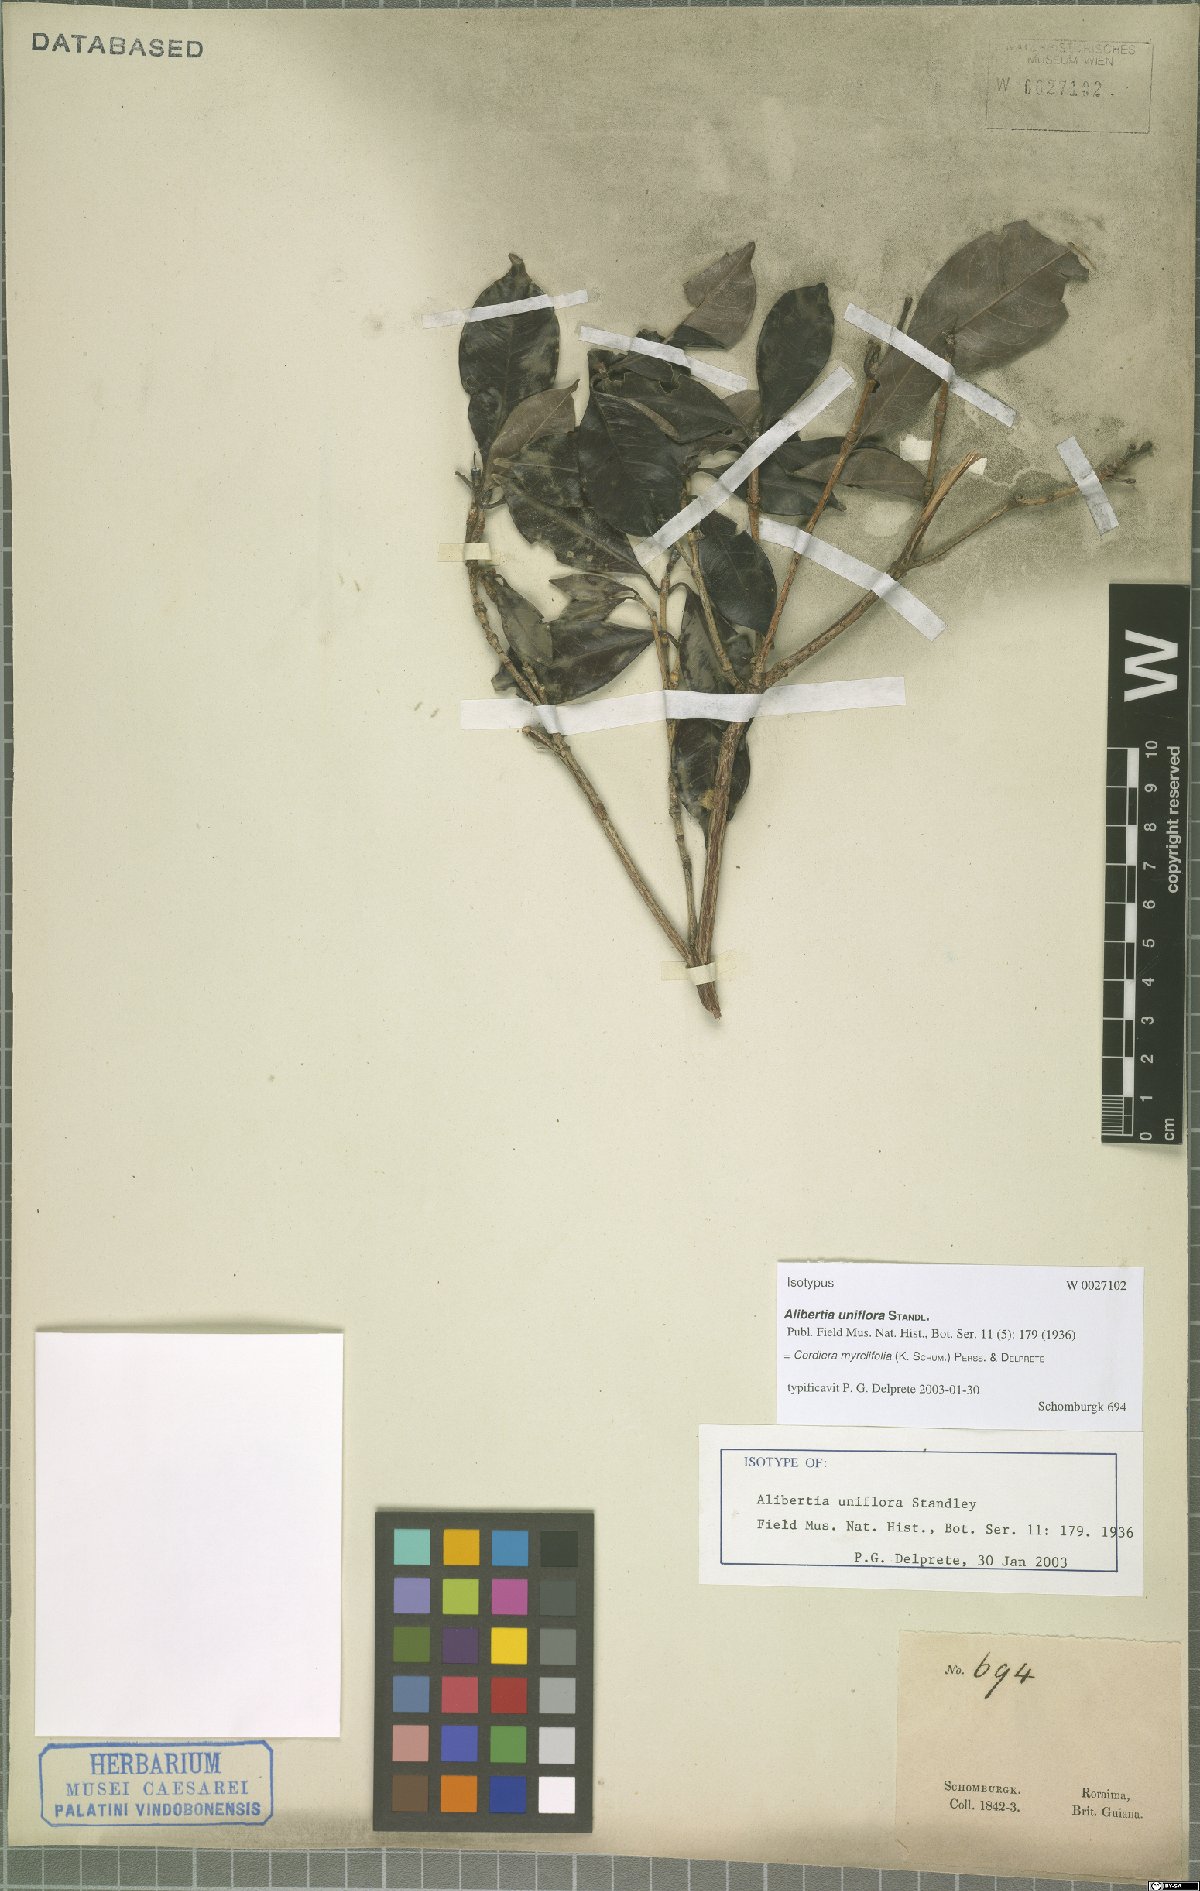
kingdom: Plantae
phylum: Tracheophyta
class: Magnoliopsida
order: Gentianales
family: Rubiaceae
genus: Cordiera
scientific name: Cordiera myrciifolia
